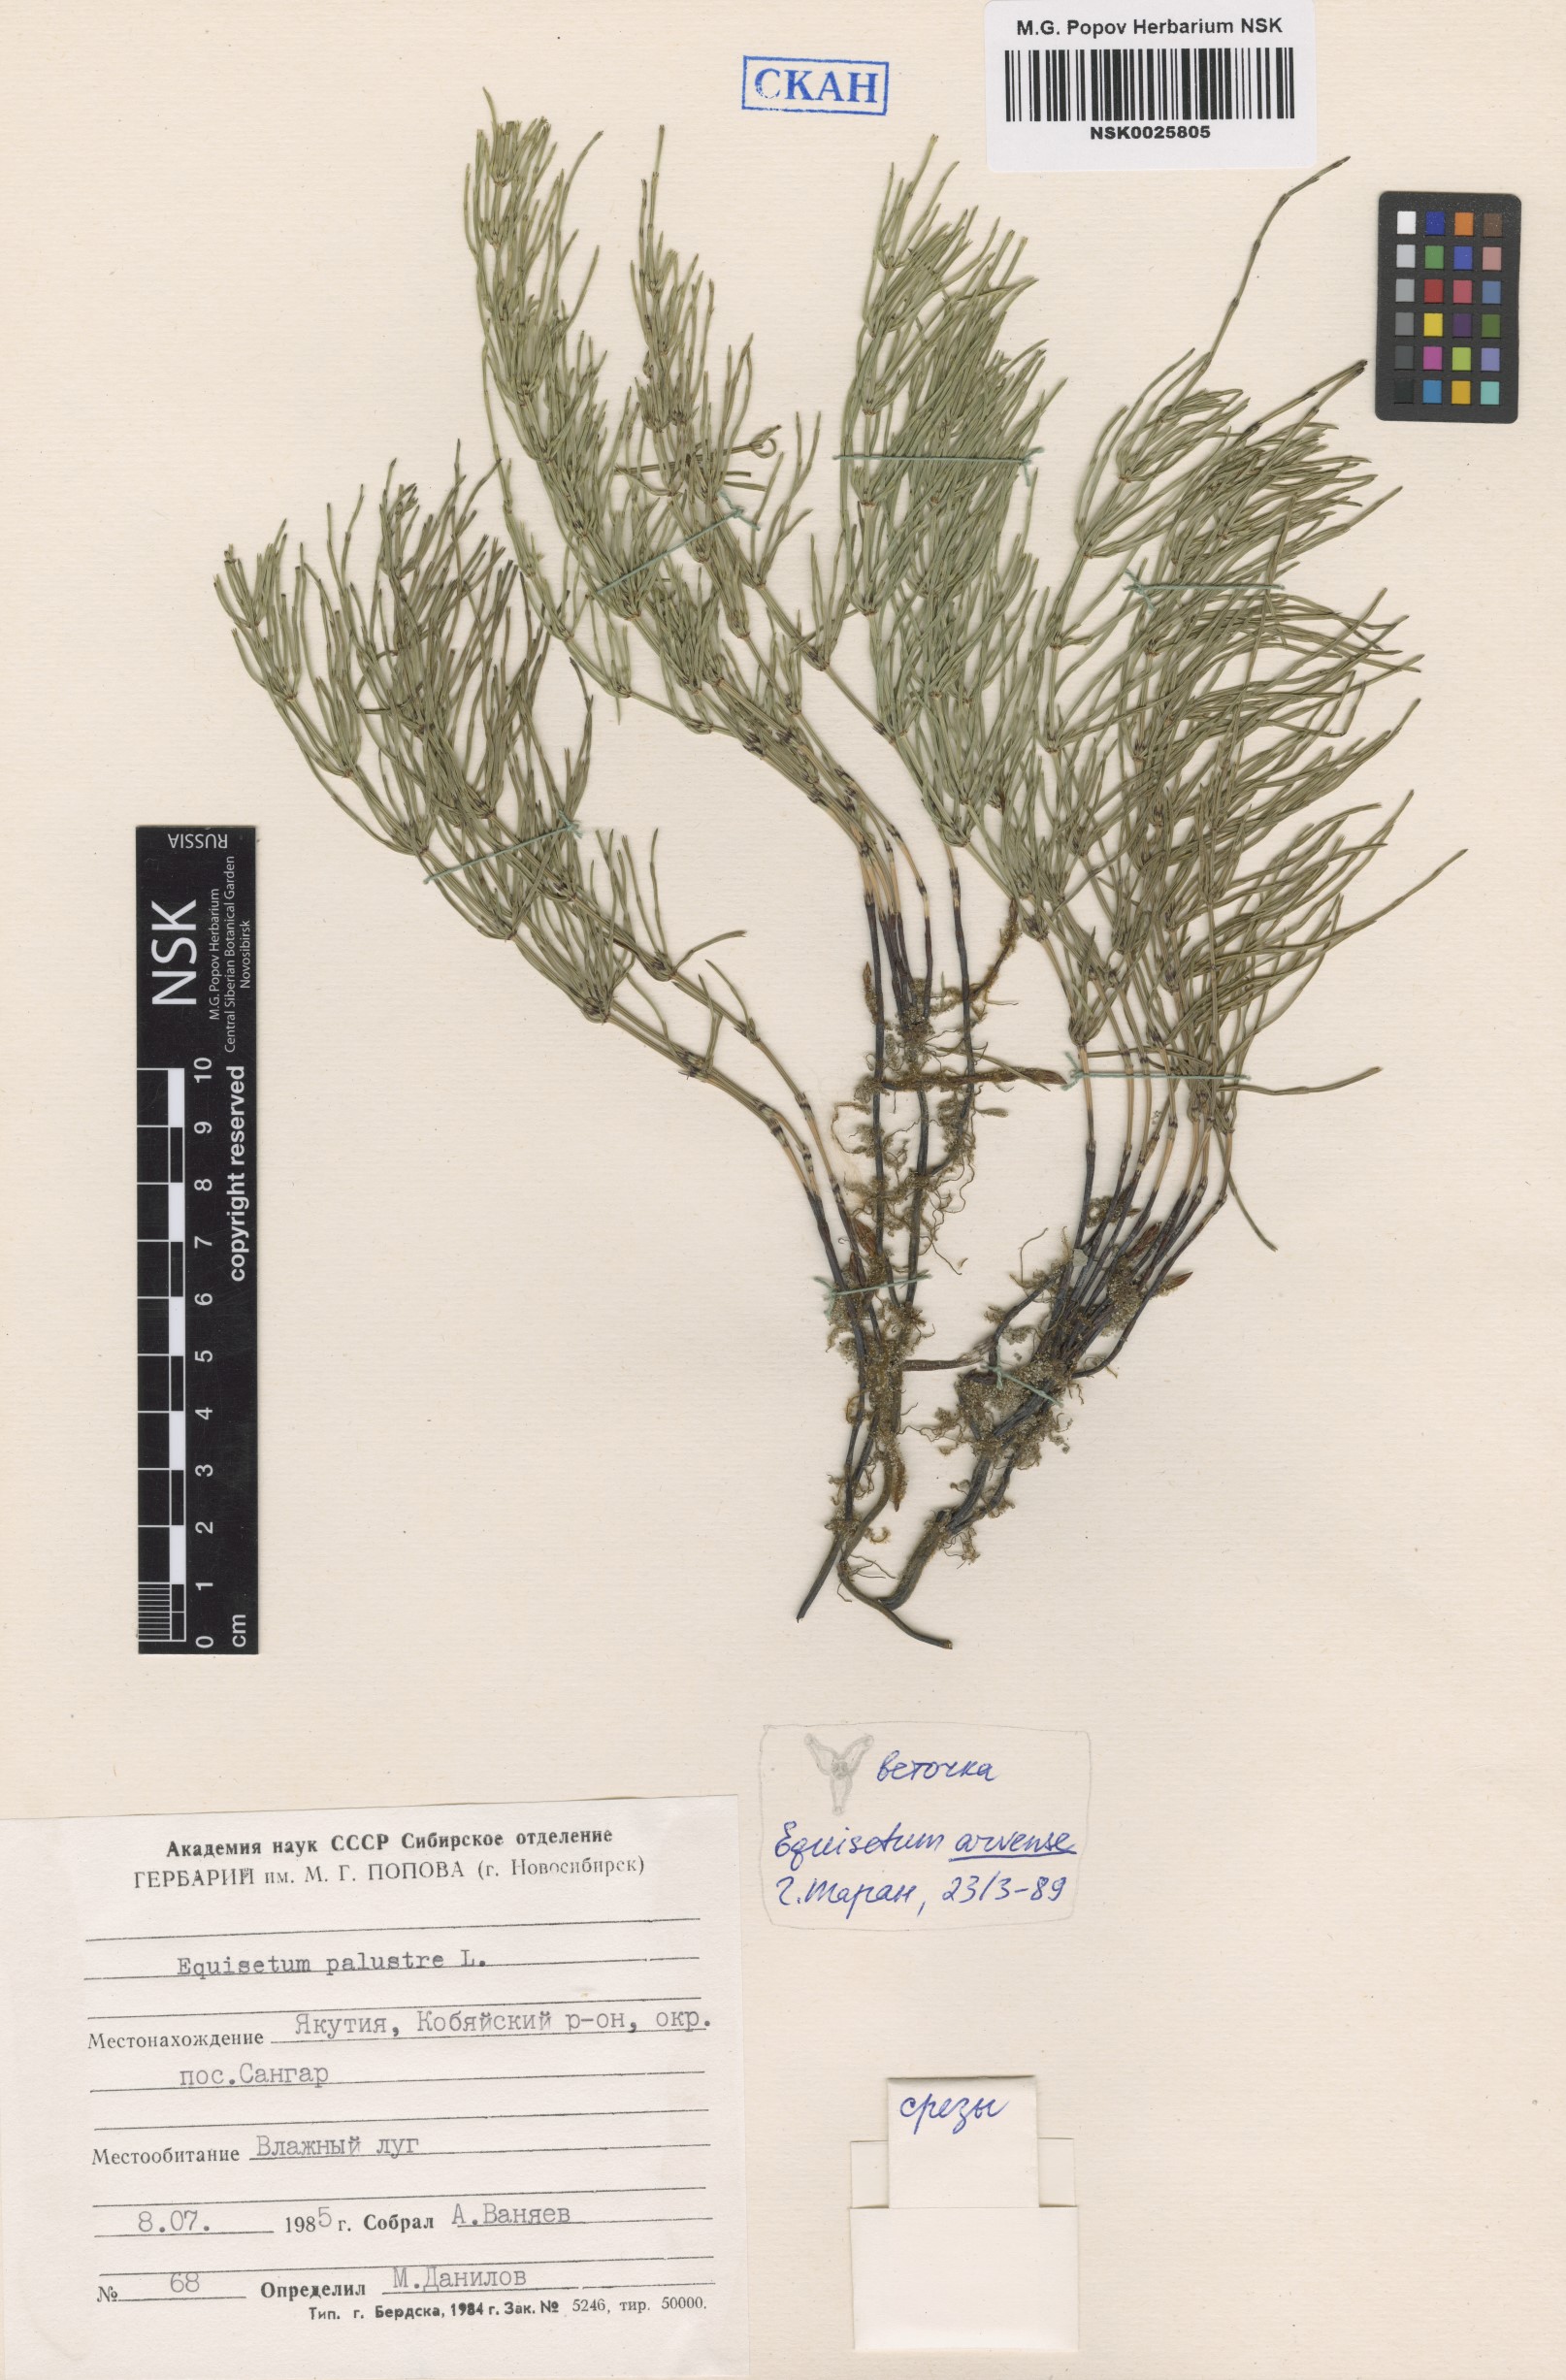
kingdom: Plantae
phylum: Tracheophyta
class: Polypodiopsida
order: Equisetales
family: Equisetaceae
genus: Equisetum
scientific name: Equisetum palustre
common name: Marsh horsetail
